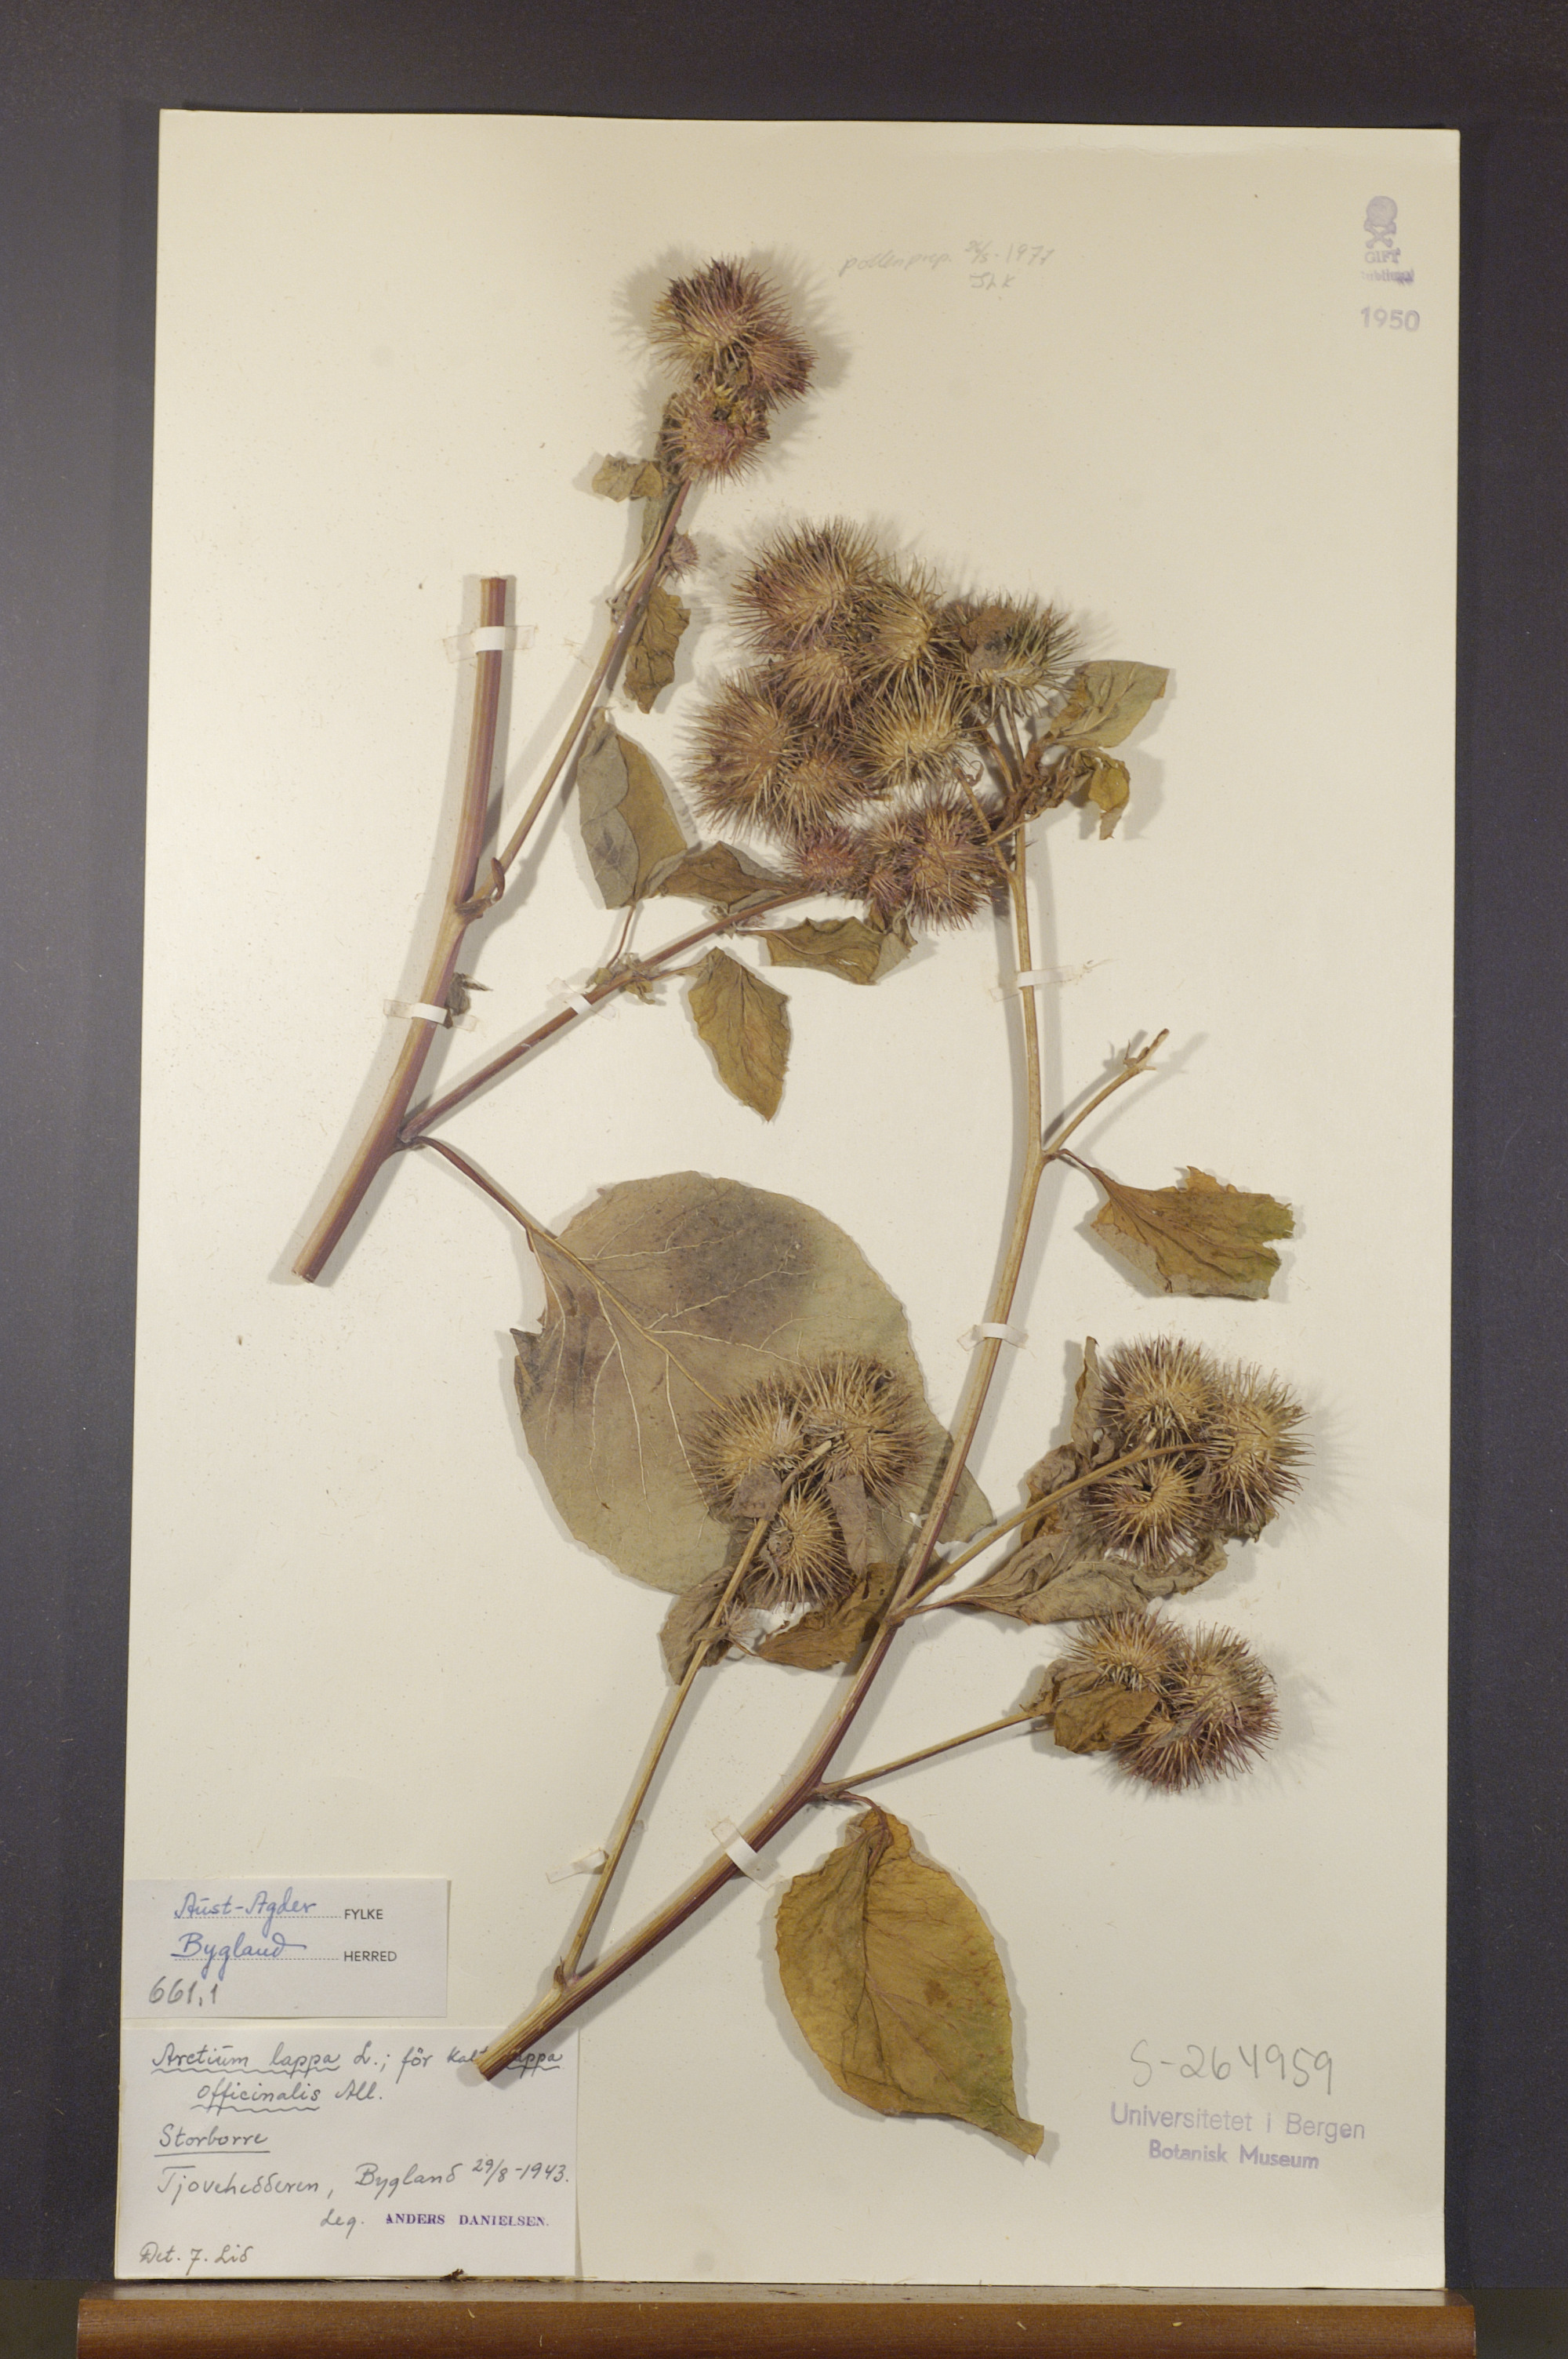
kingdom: Plantae
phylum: Tracheophyta
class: Magnoliopsida
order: Asterales
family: Asteraceae
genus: Arctium
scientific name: Arctium lappa
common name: Greater burdock
